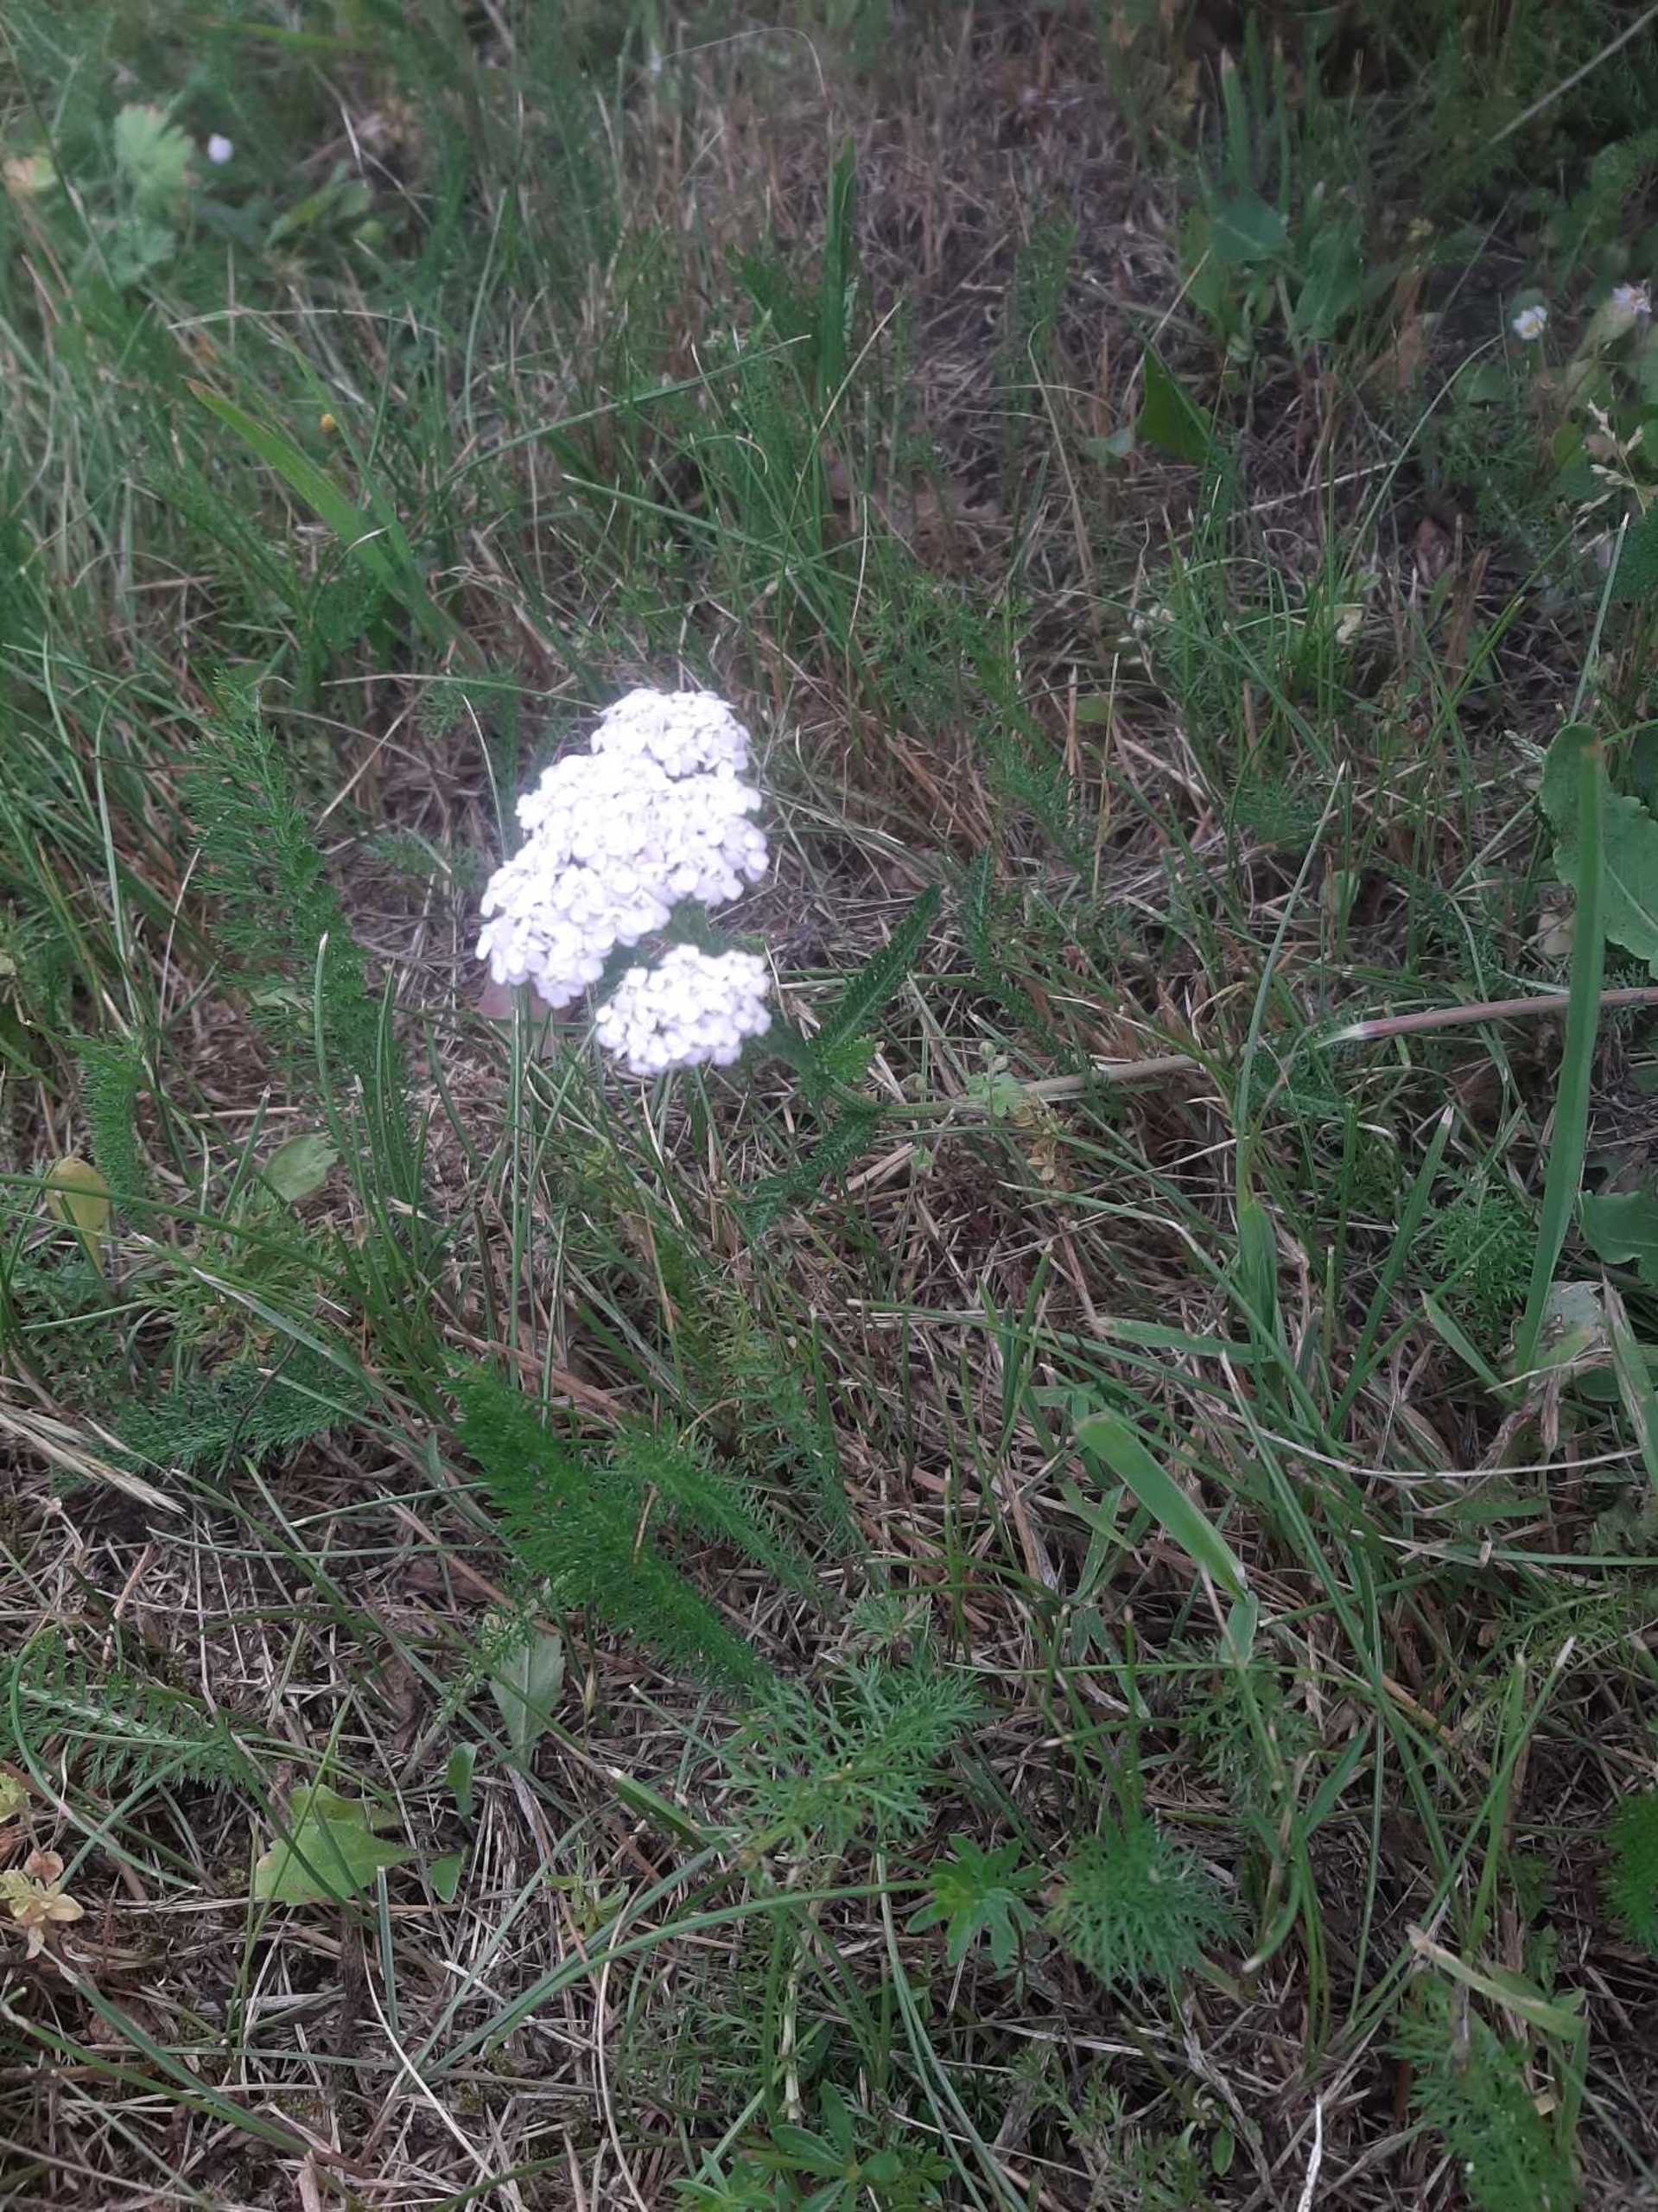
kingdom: Plantae
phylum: Tracheophyta
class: Magnoliopsida
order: Asterales
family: Asteraceae
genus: Achillea
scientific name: Achillea millefolium
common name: Almindelig røllike
